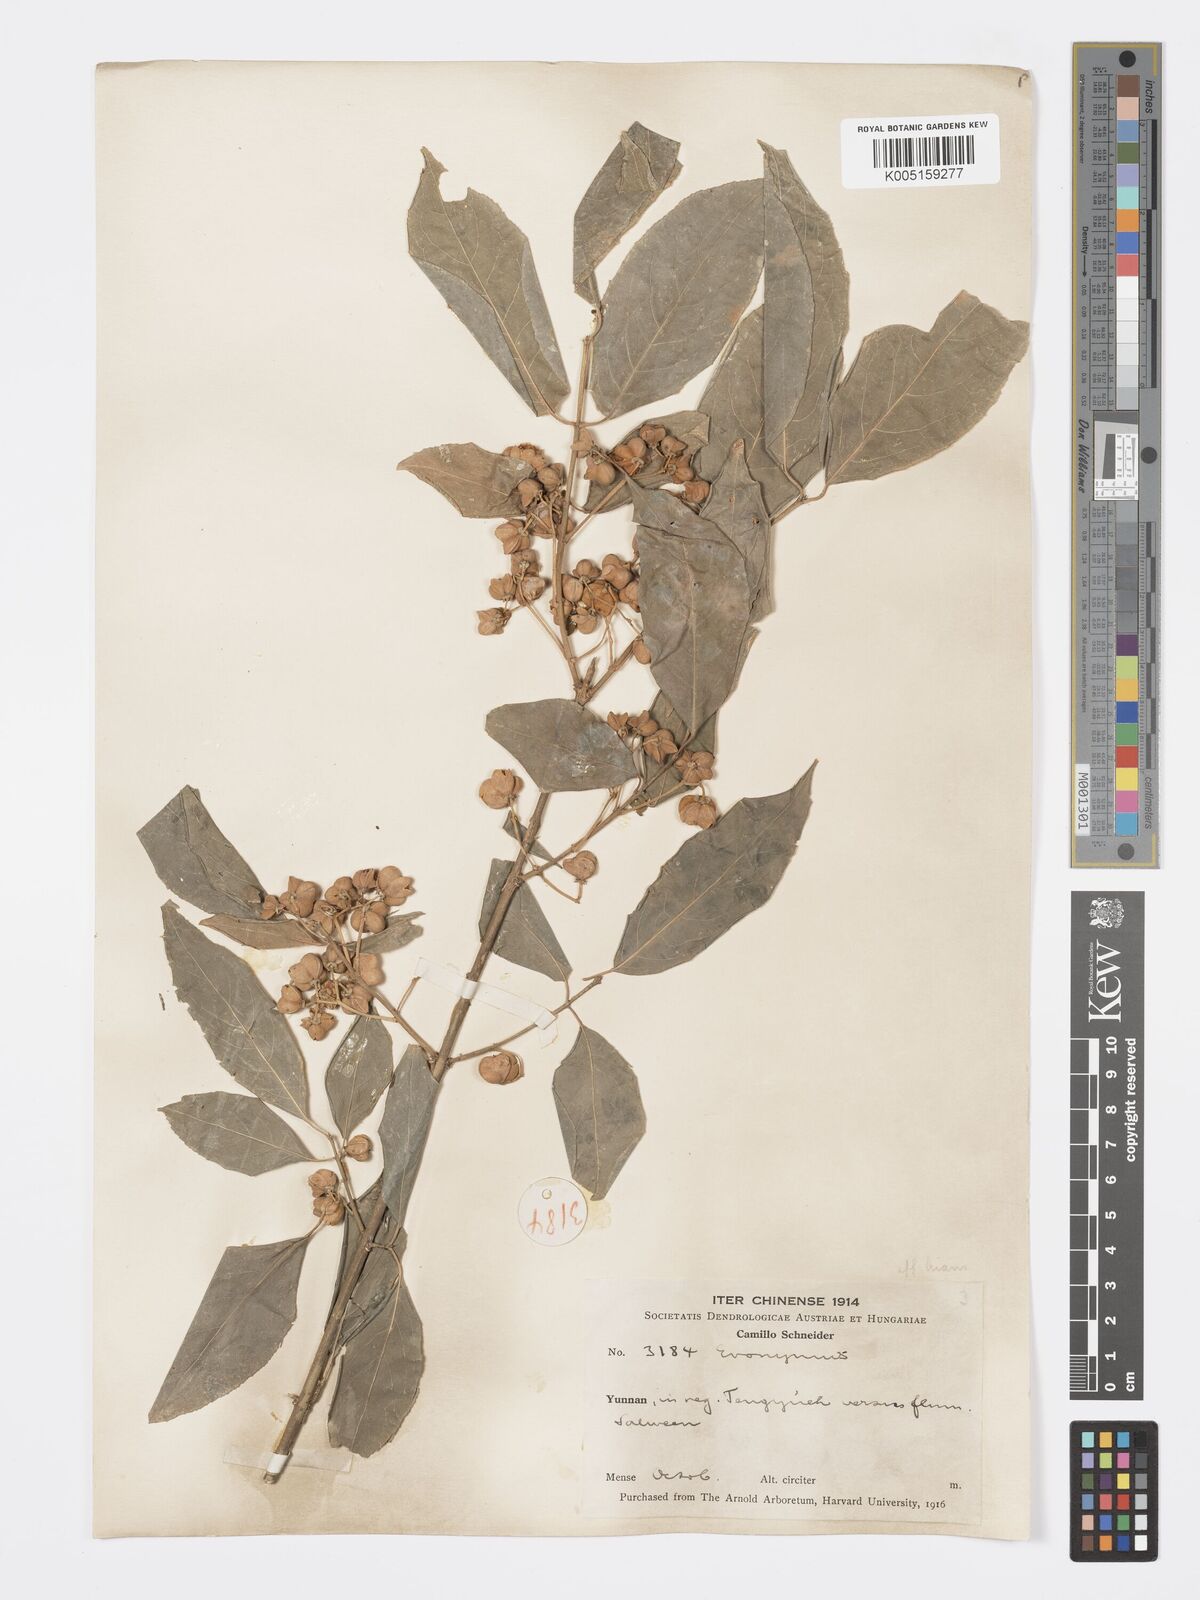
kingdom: Plantae
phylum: Tracheophyta
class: Magnoliopsida
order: Celastrales
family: Celastraceae
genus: Euonymus
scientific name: Euonymus hamiltonianus
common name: Hamilton's spindletree
